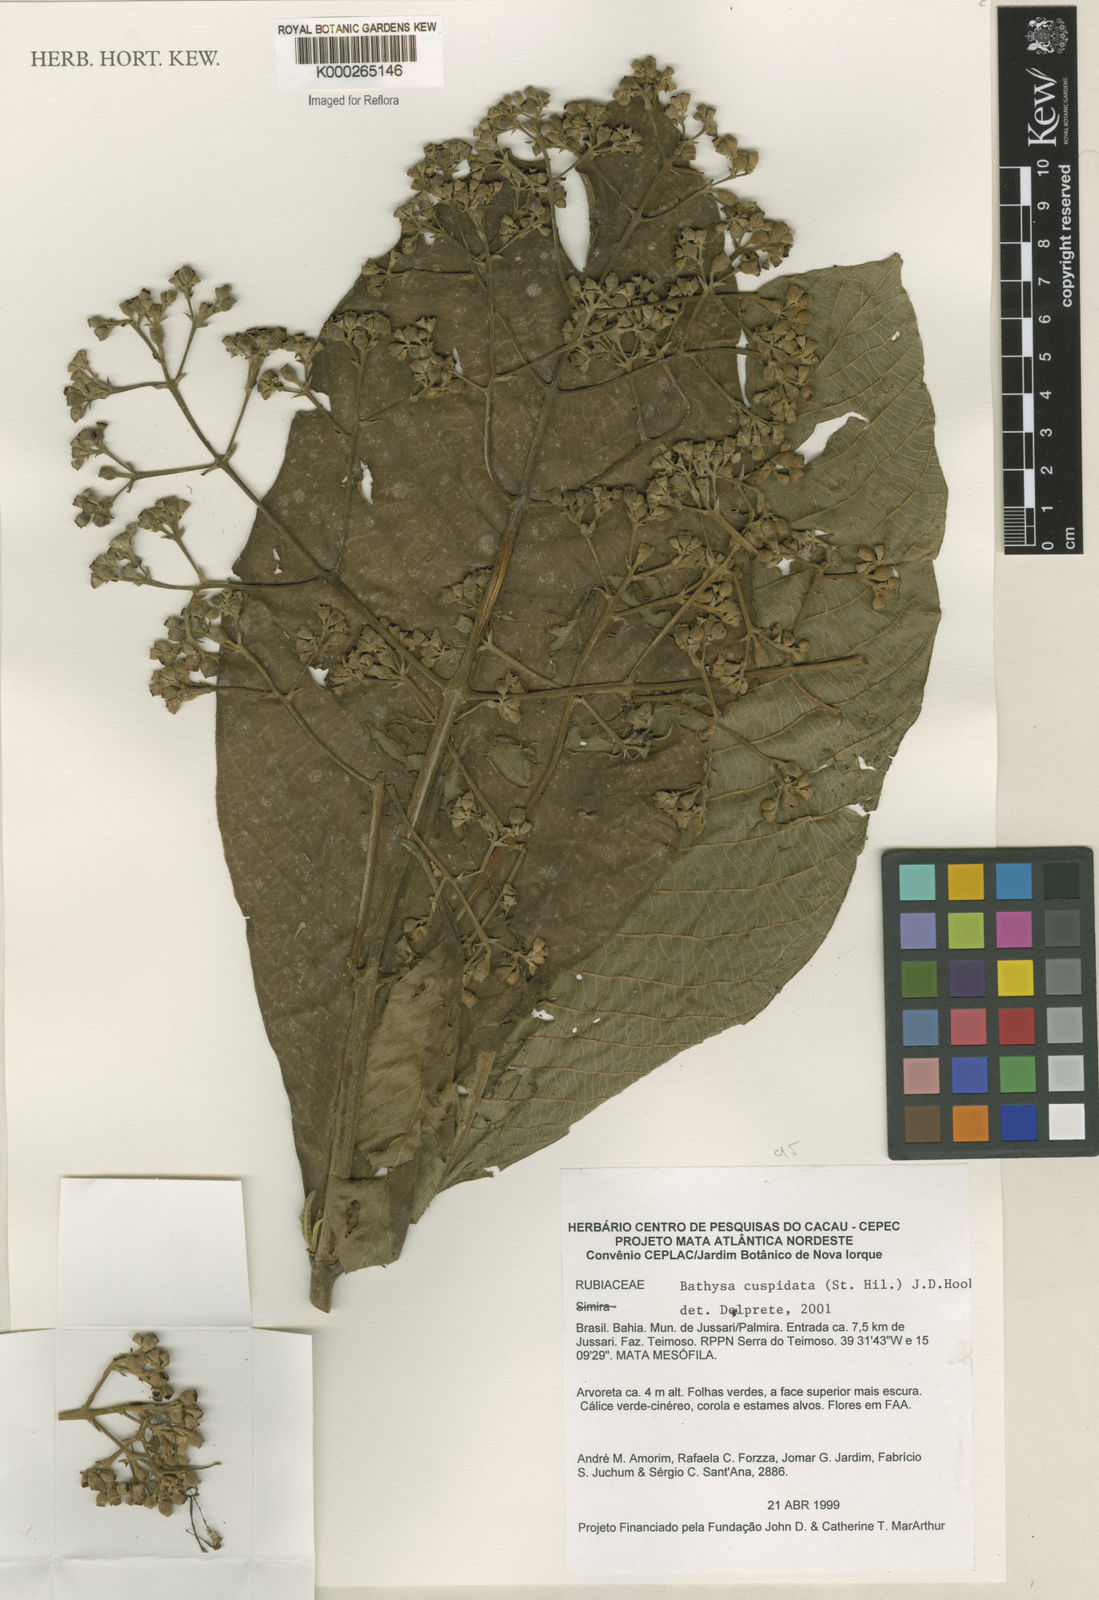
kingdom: Plantae
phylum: Tracheophyta
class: Magnoliopsida
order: Gentianales
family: Rubiaceae
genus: Schizocalyx
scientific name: Schizocalyx cuspidatus
